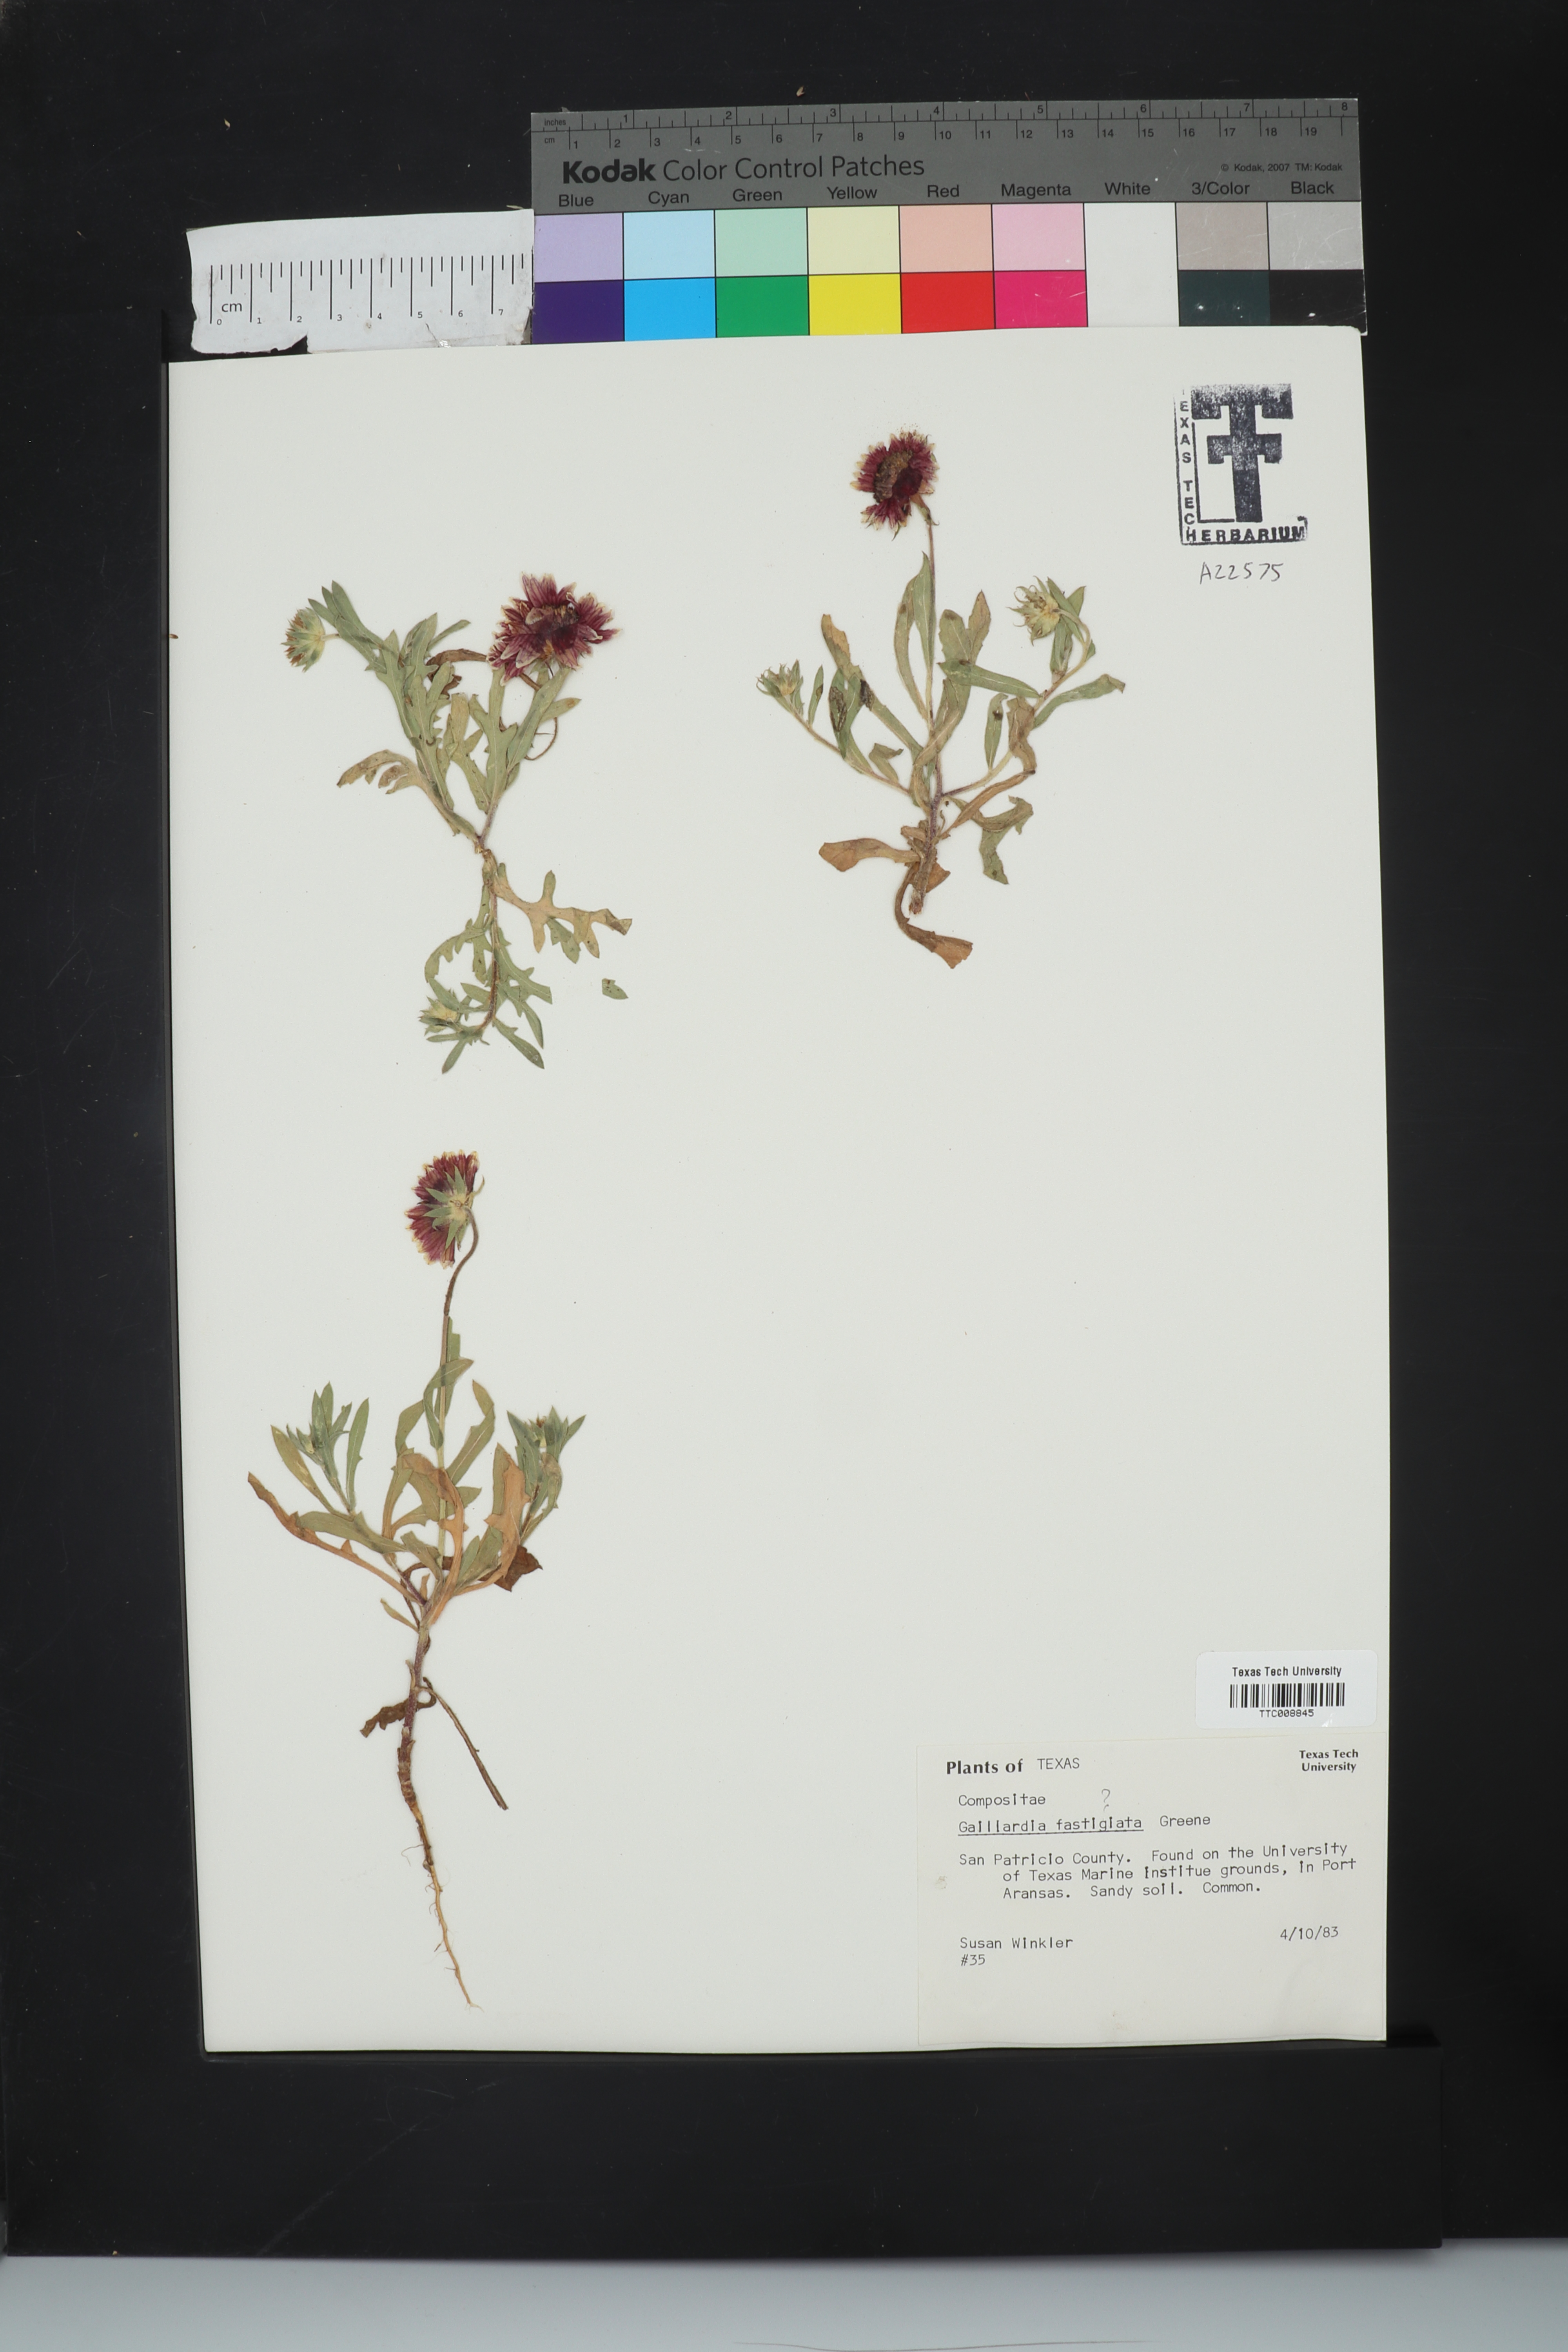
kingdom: Plantae
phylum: Tracheophyta
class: Magnoliopsida
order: Asterales
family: Asteraceae
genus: Gaillardia
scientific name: Gaillardia aestivalis
